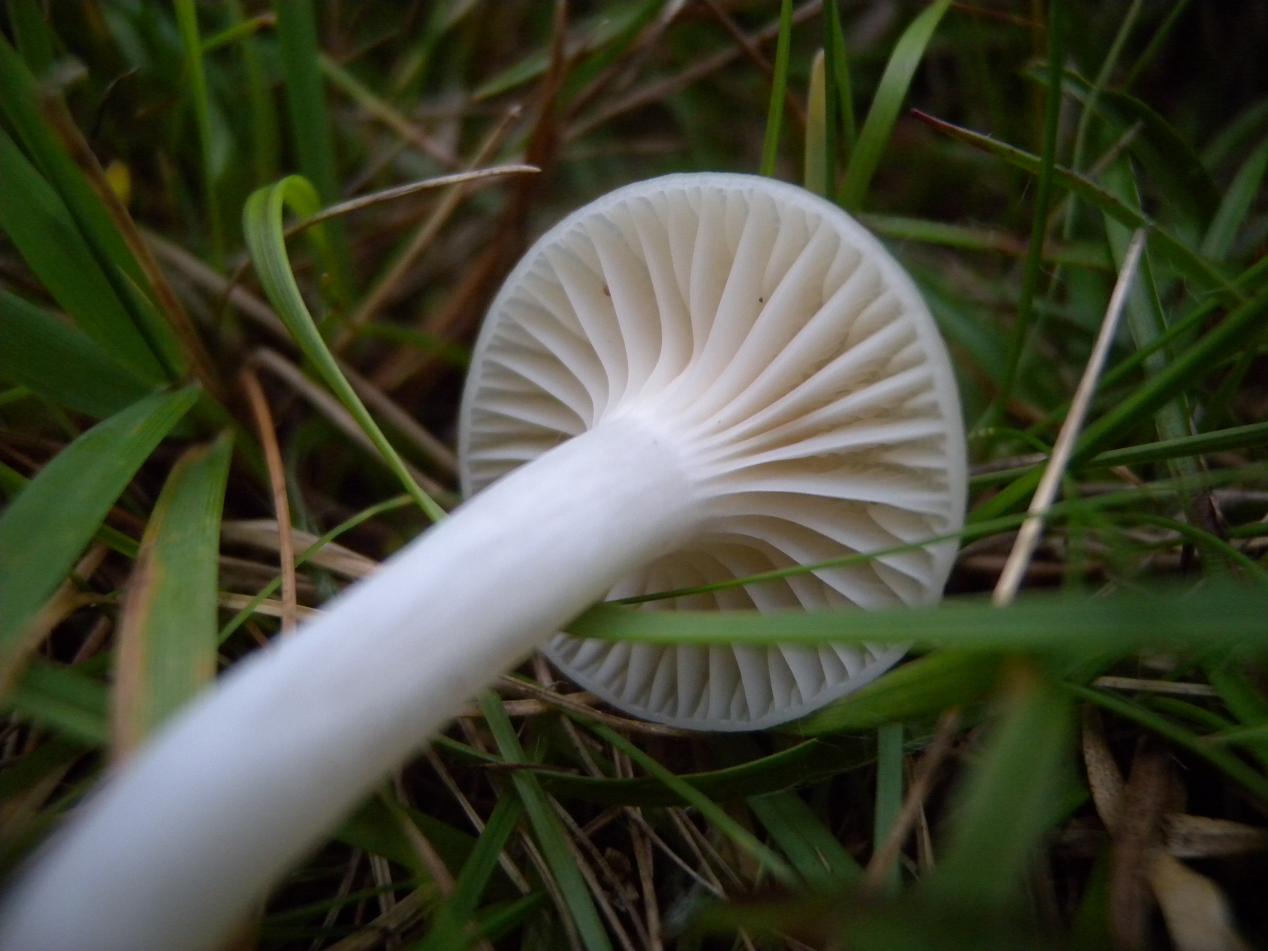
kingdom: Fungi
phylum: Basidiomycota
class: Agaricomycetes
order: Agaricales
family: Hygrophoraceae
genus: Cuphophyllus
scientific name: Cuphophyllus virgineus
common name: snehvid vokshat
